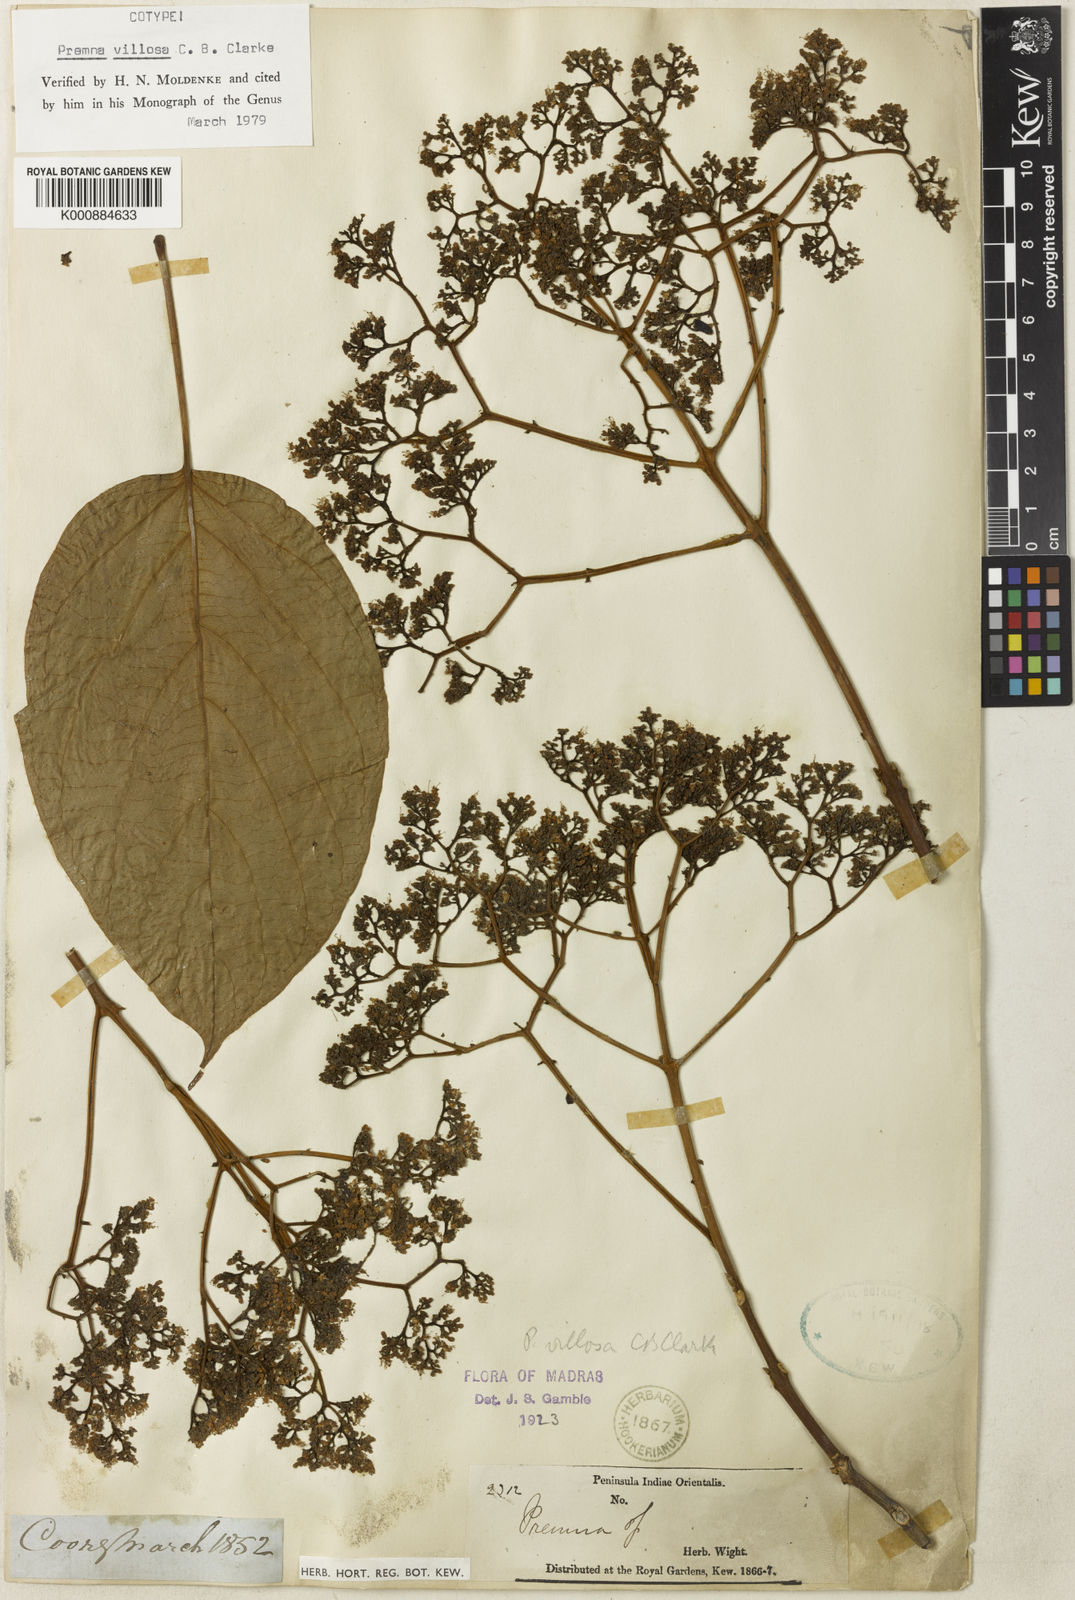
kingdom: Plantae
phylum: Tracheophyta
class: Magnoliopsida
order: Lamiales
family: Lamiaceae
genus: Premna
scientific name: Premna coriacea
